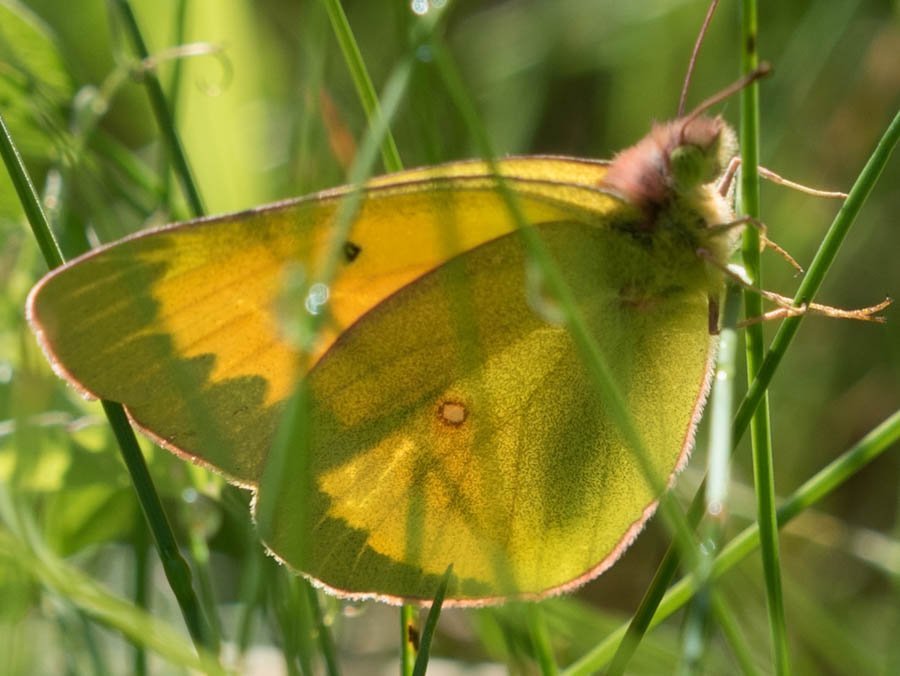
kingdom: Animalia
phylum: Arthropoda
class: Insecta
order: Lepidoptera
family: Pieridae
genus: Colias
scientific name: Colias christina
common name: Christina Sulphur
